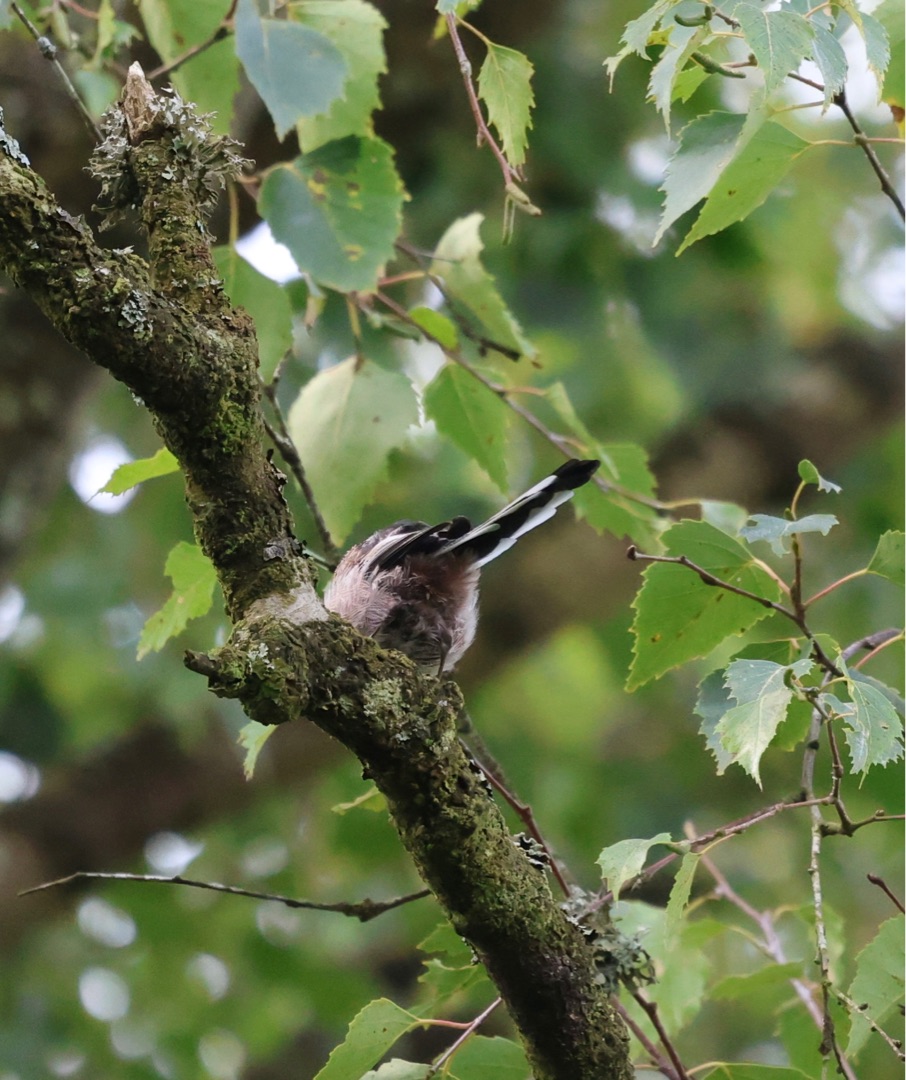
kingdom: Animalia
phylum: Chordata
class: Aves
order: Passeriformes
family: Aegithalidae
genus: Aegithalos
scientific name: Aegithalos caudatus
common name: Halemejse
